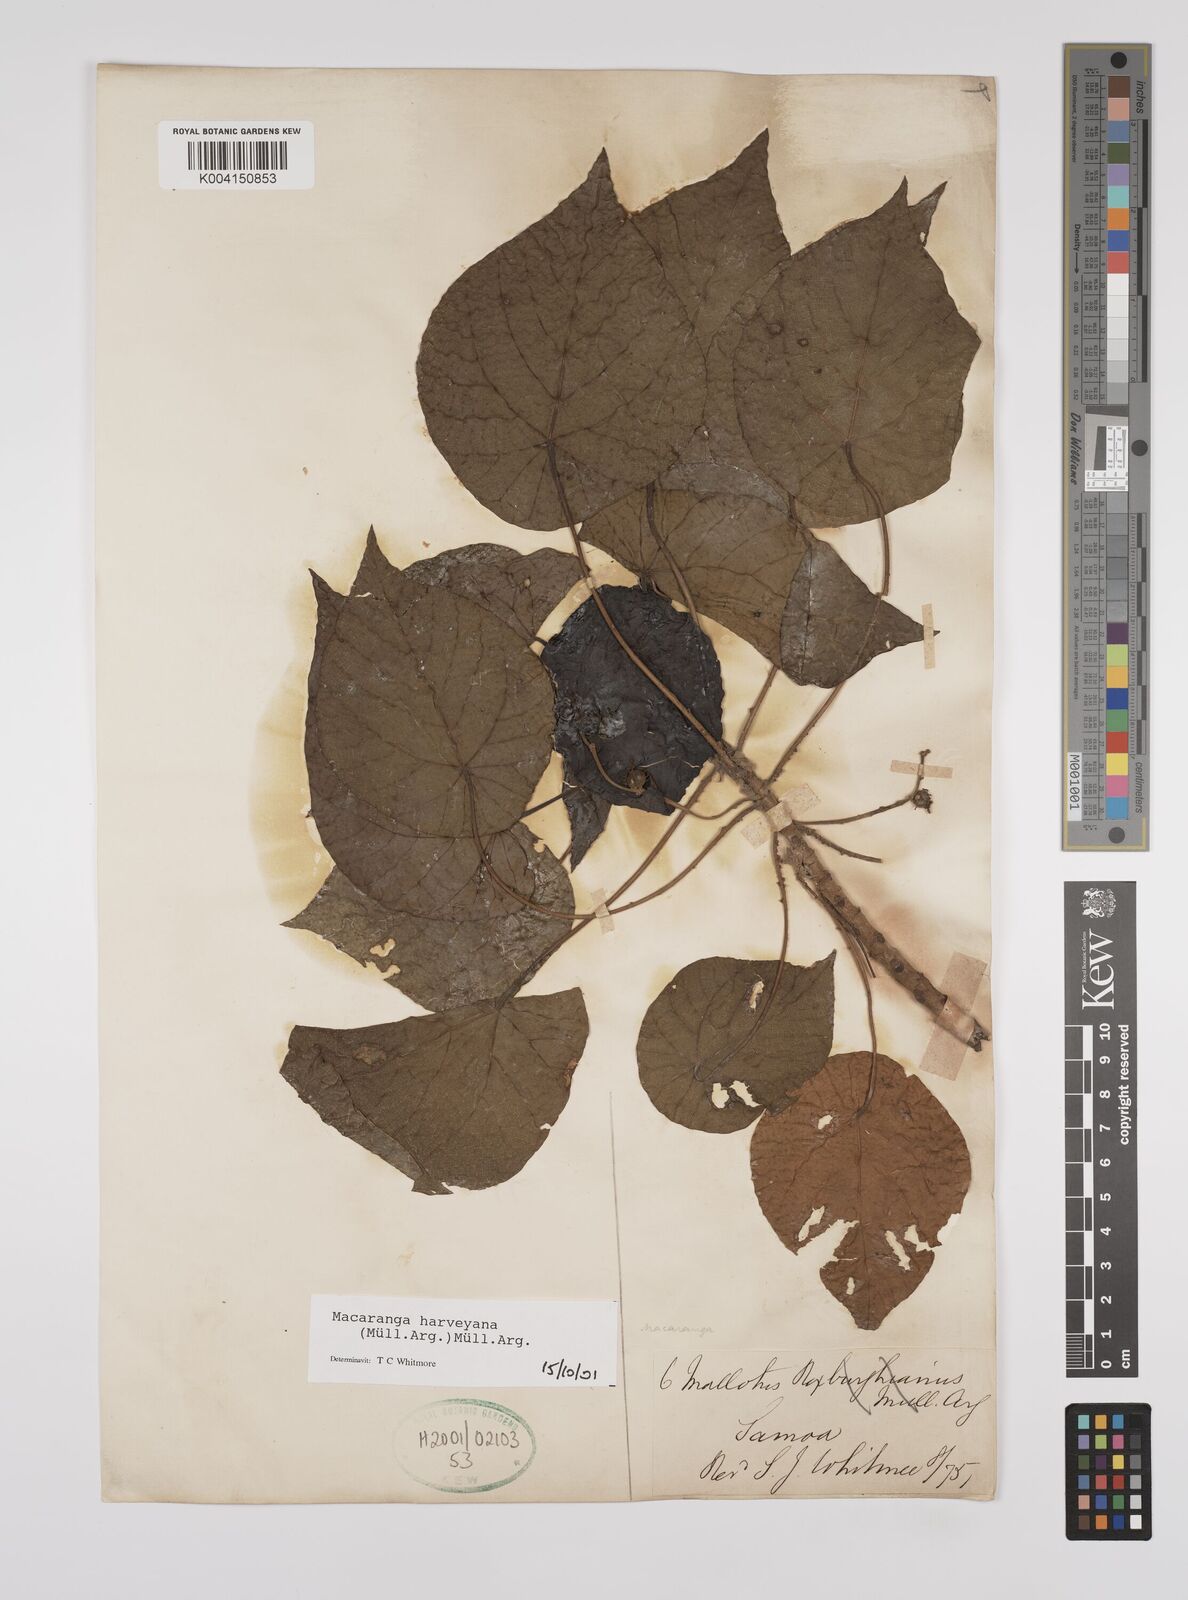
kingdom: Plantae
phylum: Tracheophyta
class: Magnoliopsida
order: Malpighiales
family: Euphorbiaceae
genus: Macaranga
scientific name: Macaranga harveyana
